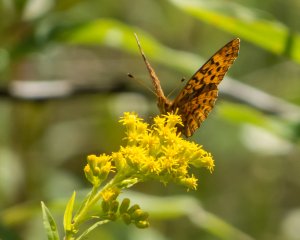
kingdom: Animalia
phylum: Arthropoda
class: Insecta
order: Lepidoptera
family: Nymphalidae
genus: Clossiana
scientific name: Clossiana toddi
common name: Meadow Fritillary
